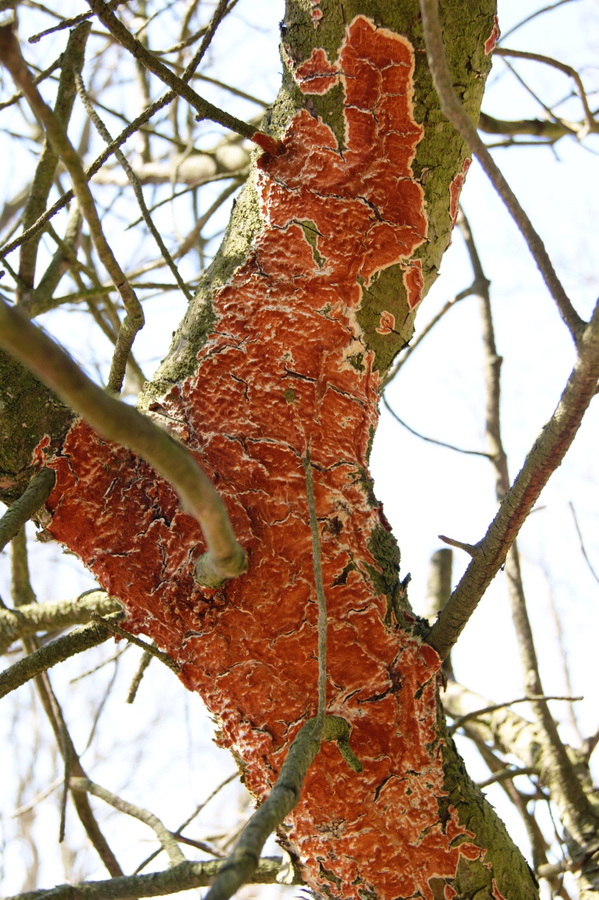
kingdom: Fungi
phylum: Basidiomycota
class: Agaricomycetes
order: Polyporales
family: Irpicaceae
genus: Meruliopsis
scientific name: Meruliopsis taxicola
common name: purpurbrun foldporesvamp
